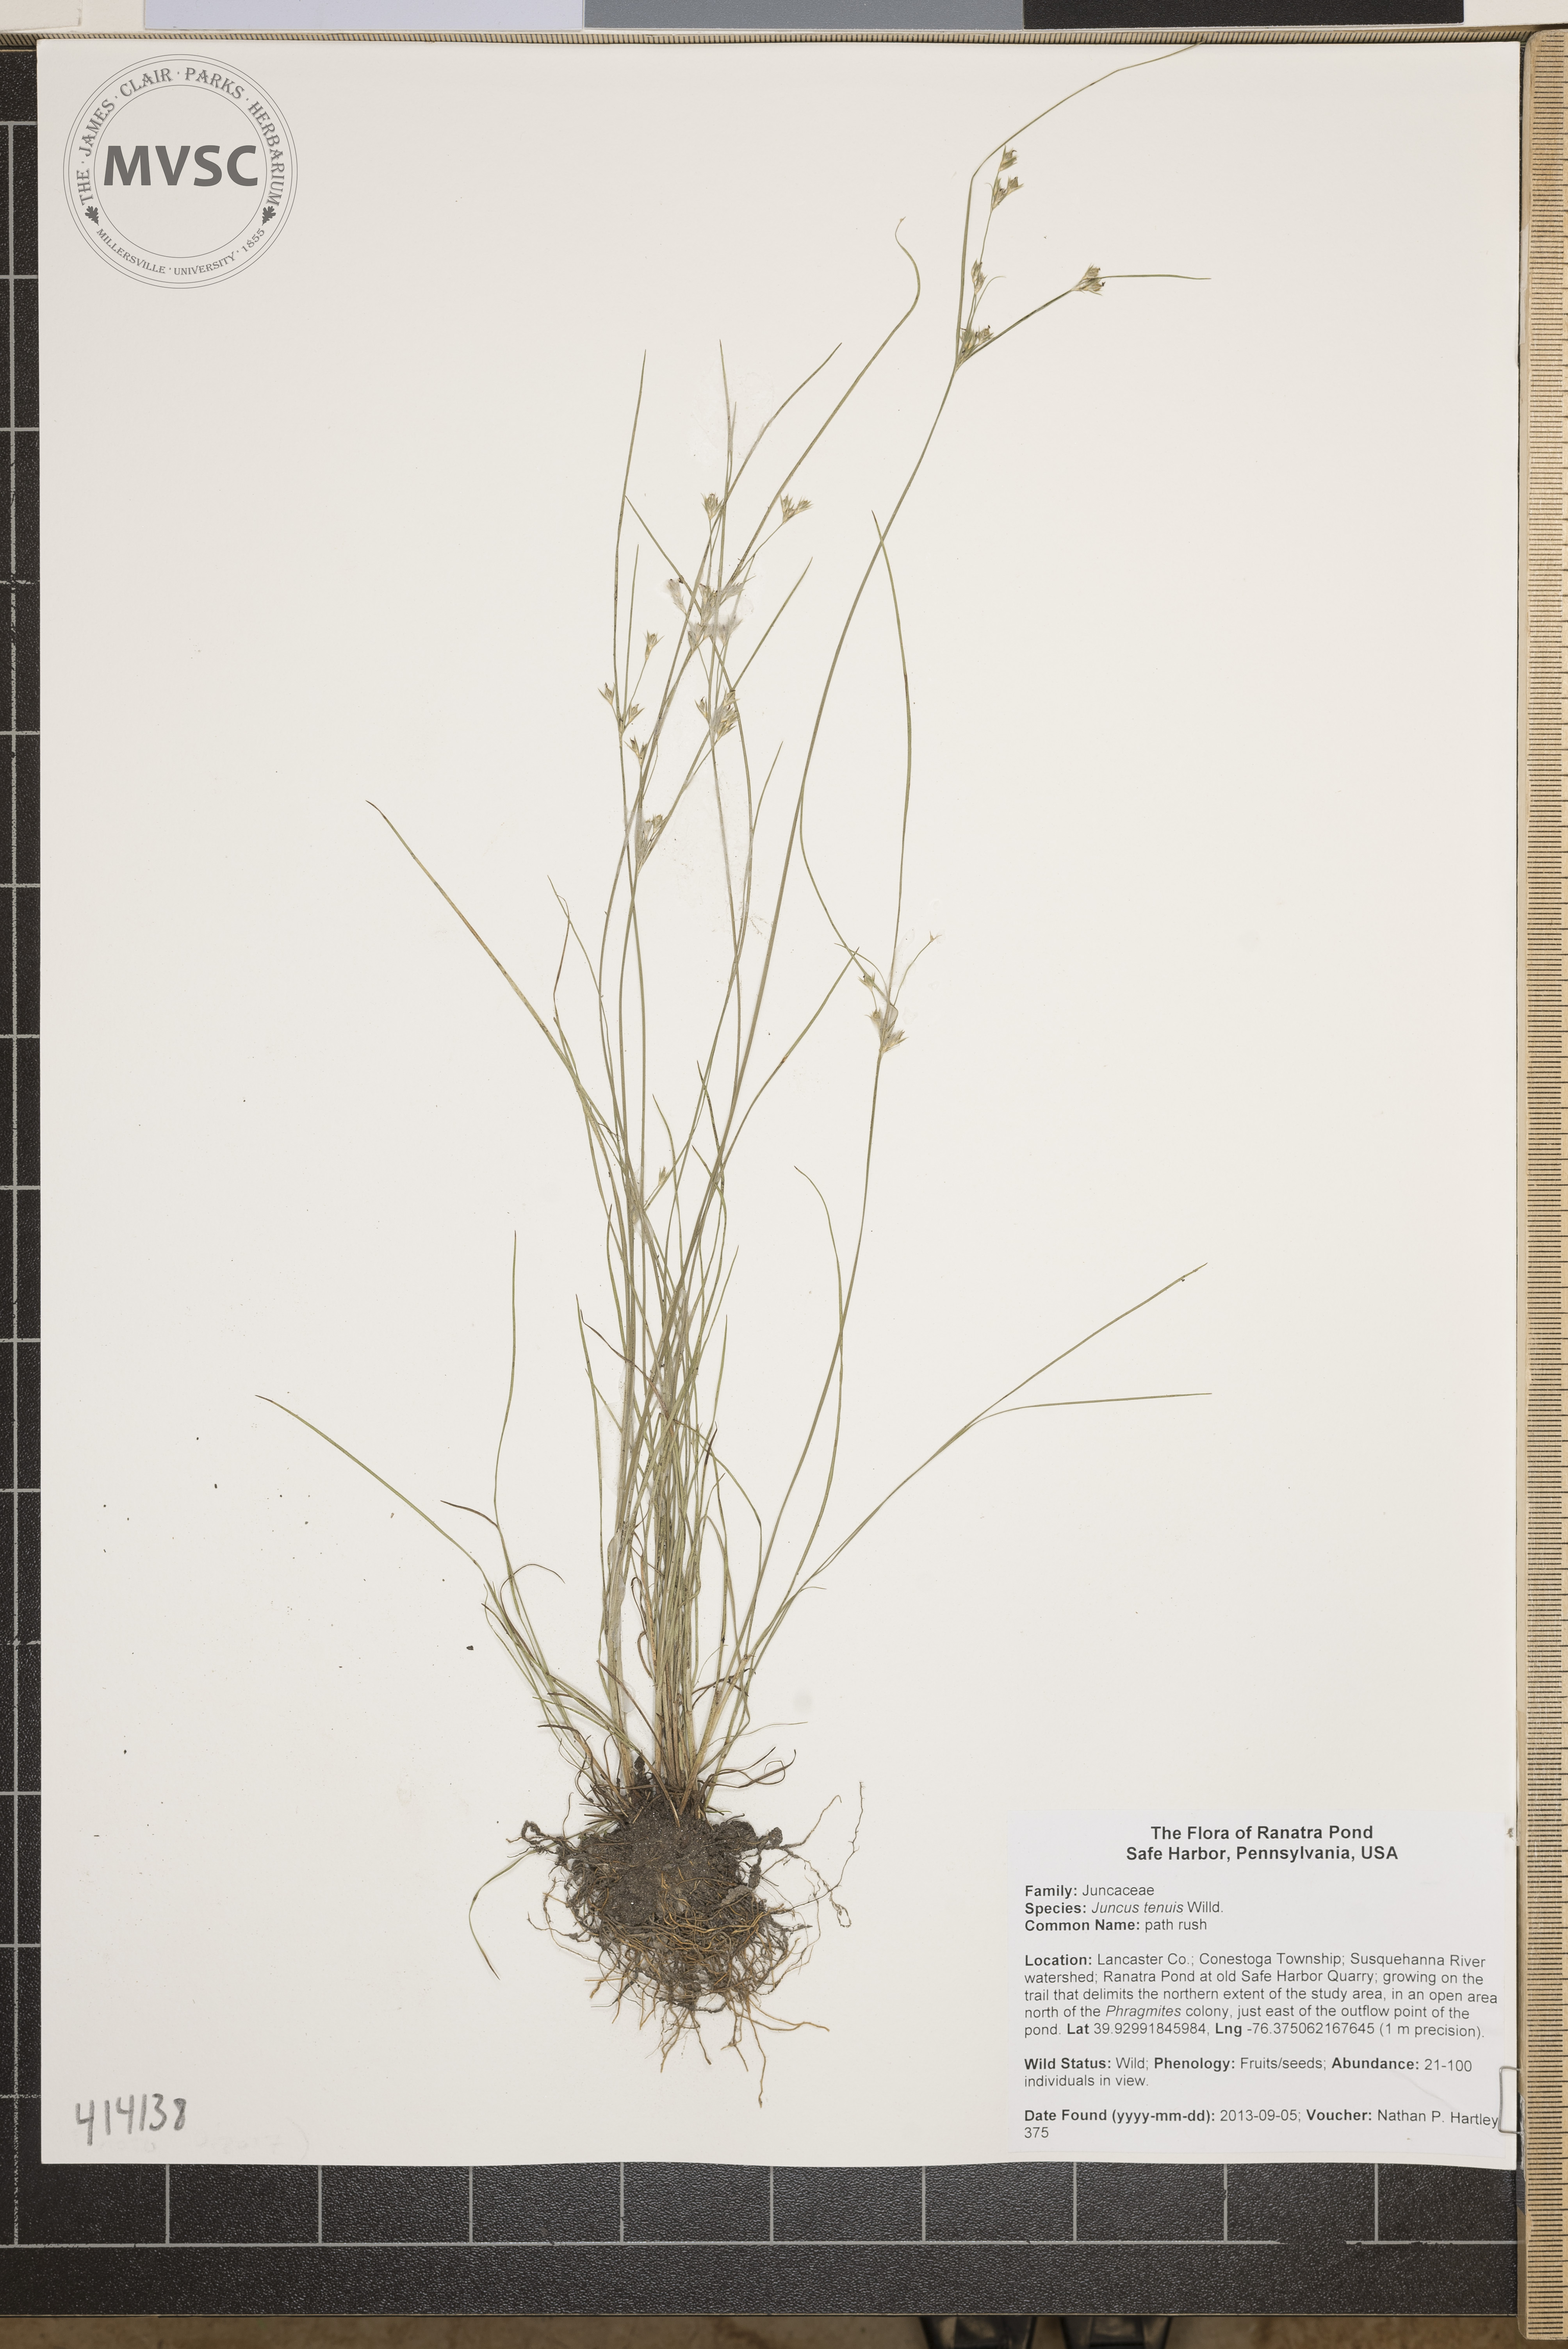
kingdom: Plantae
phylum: Tracheophyta
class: Liliopsida
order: Poales
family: Juncaceae
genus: Juncus
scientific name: Juncus tenuis
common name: path rush
